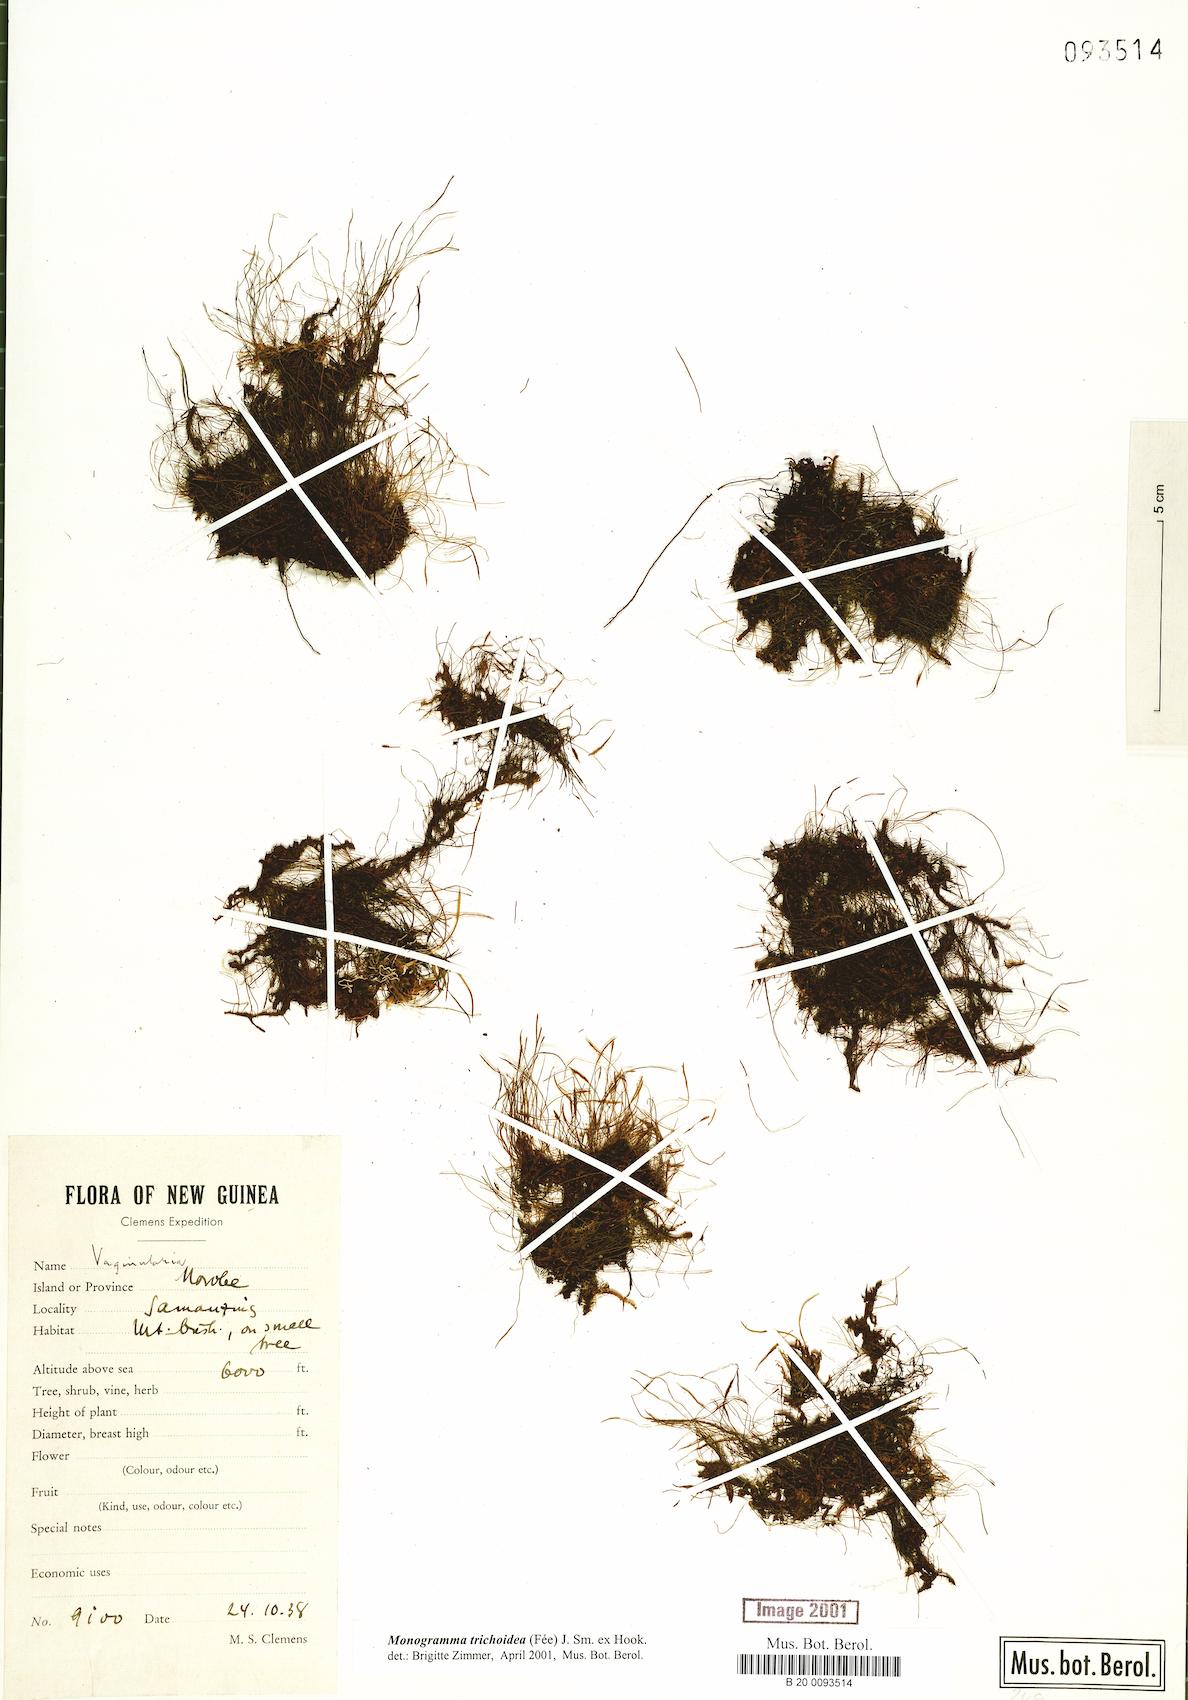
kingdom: Plantae
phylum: Tracheophyta
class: Polypodiopsida
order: Polypodiales
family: Pteridaceae
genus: Vaginularia
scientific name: Vaginularia trichoidea
